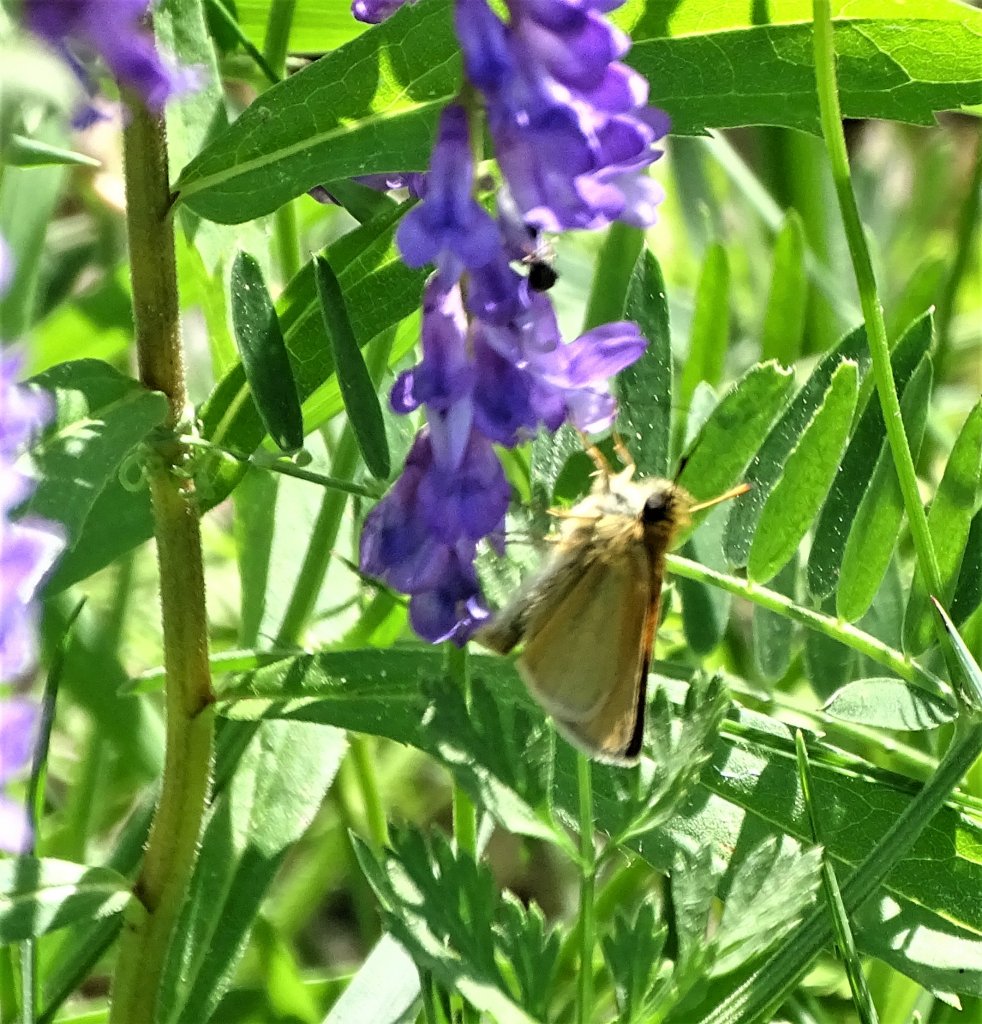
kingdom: Animalia
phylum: Arthropoda
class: Insecta
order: Lepidoptera
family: Hesperiidae
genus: Polites
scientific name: Polites themistocles
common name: Tawny-edged Skipper
